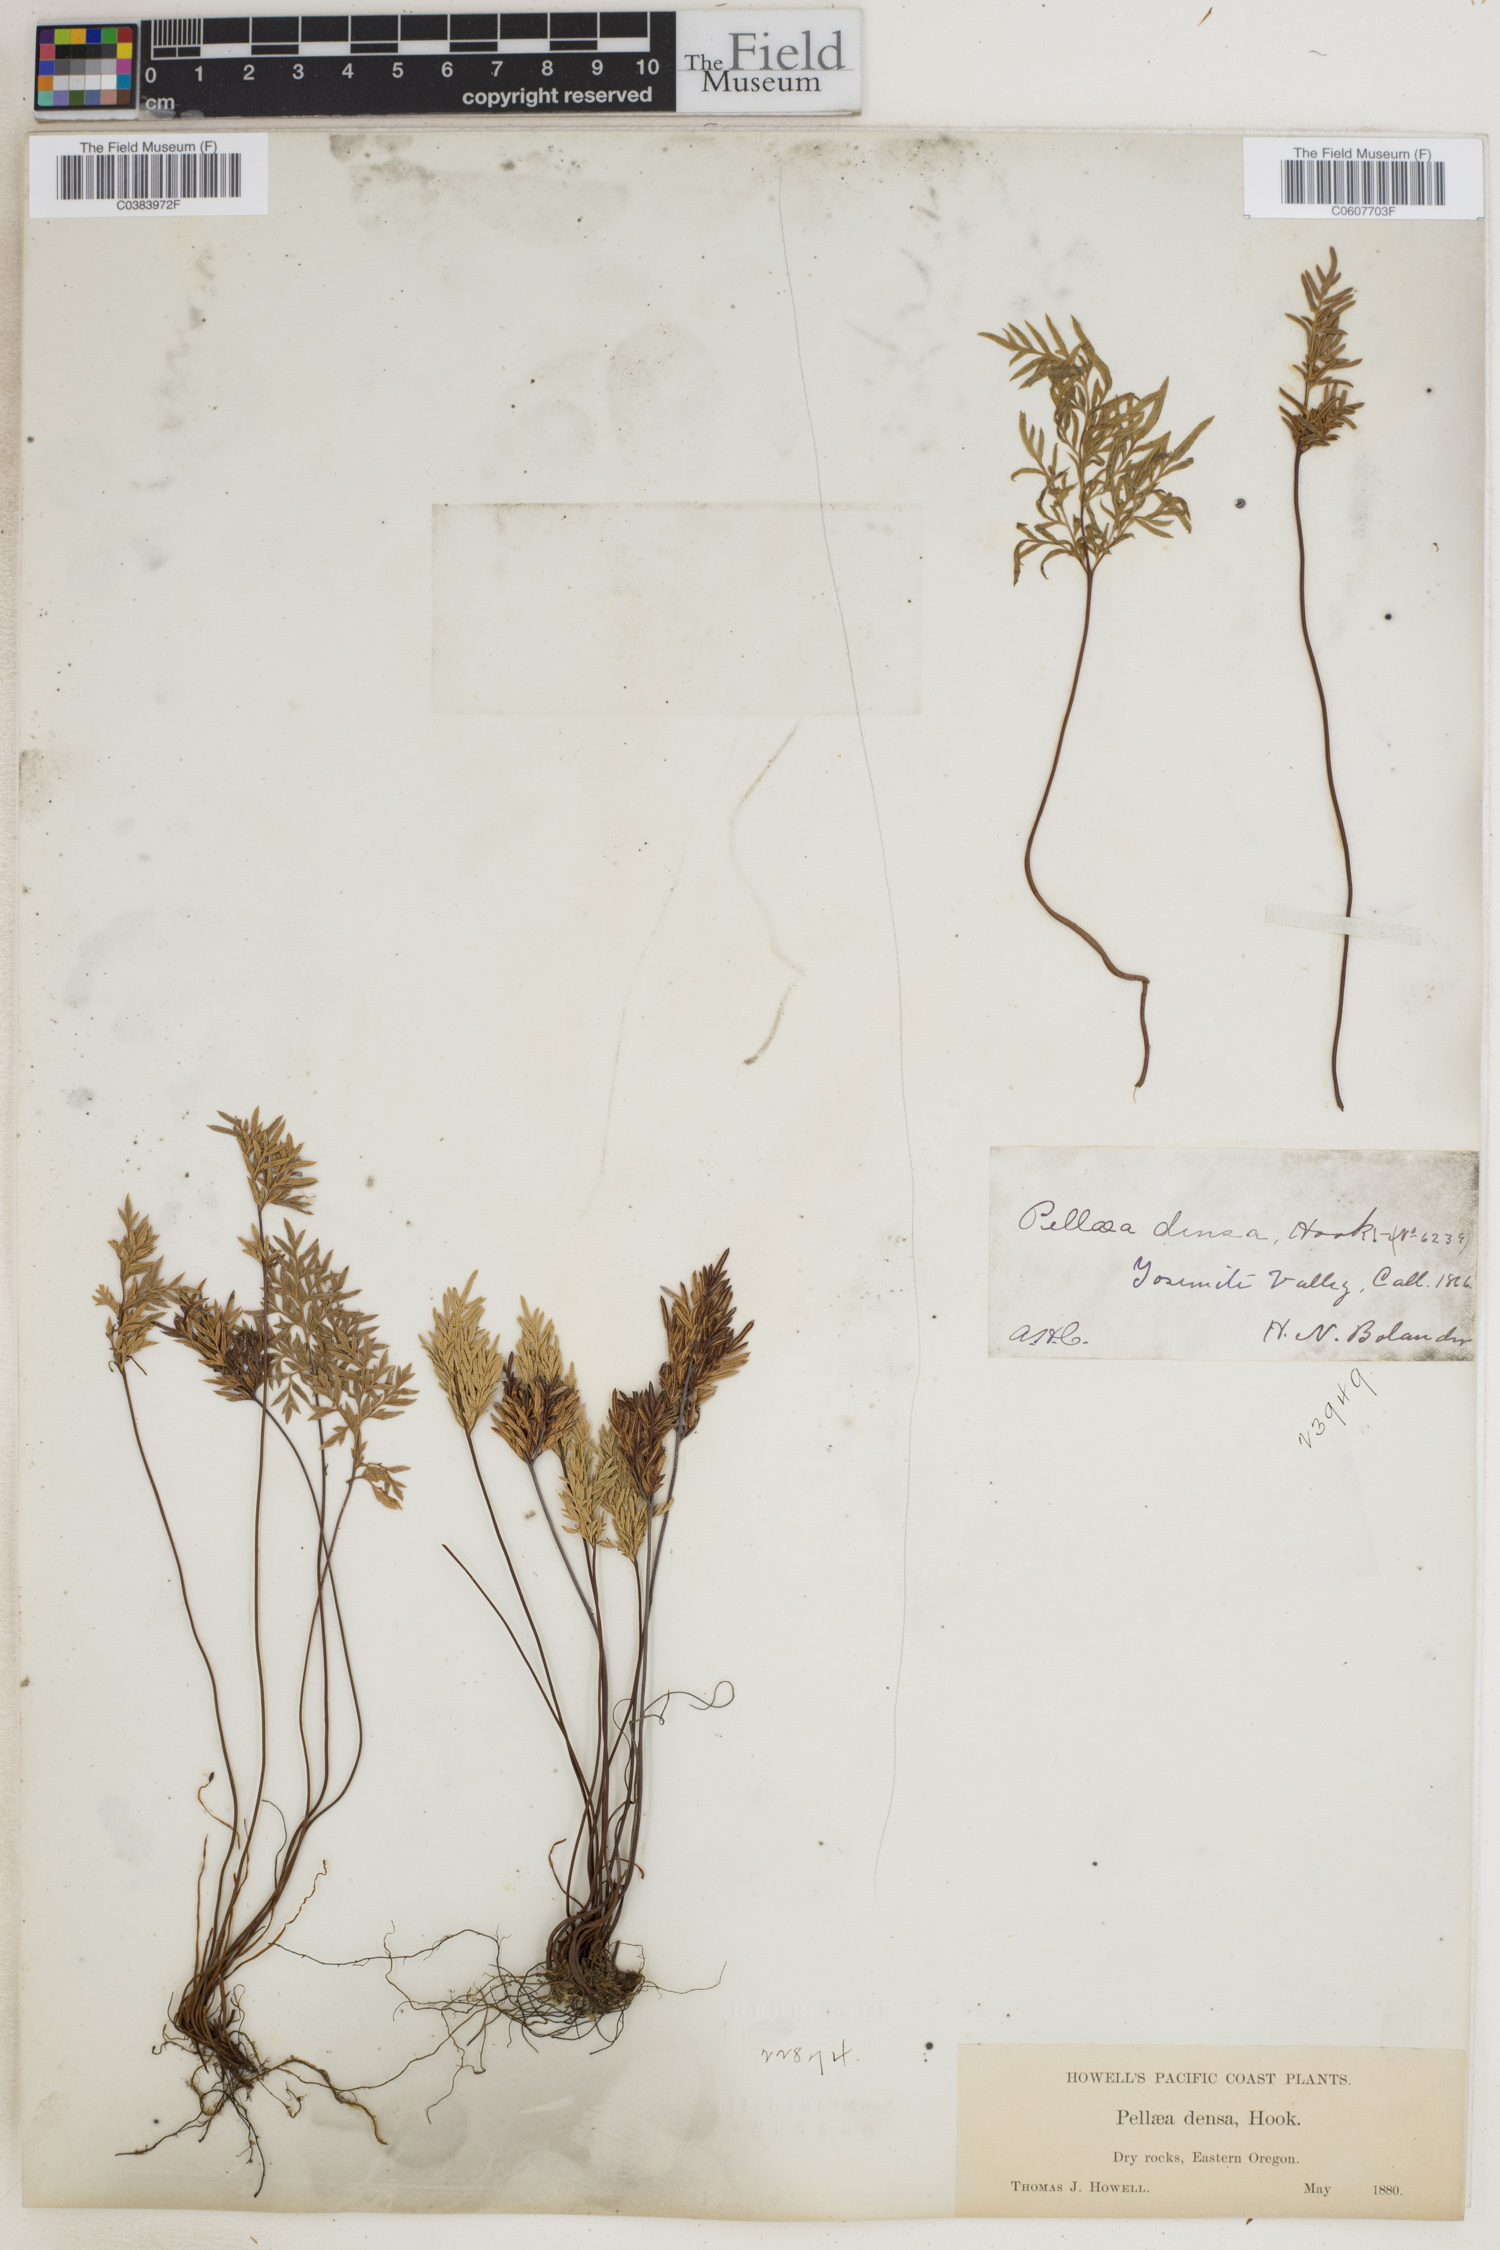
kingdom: Plantae
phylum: Tracheophyta
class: Polypodiopsida
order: Polypodiales
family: Pteridaceae
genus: Aspidotis
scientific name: Aspidotis densa
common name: Indian's dream
